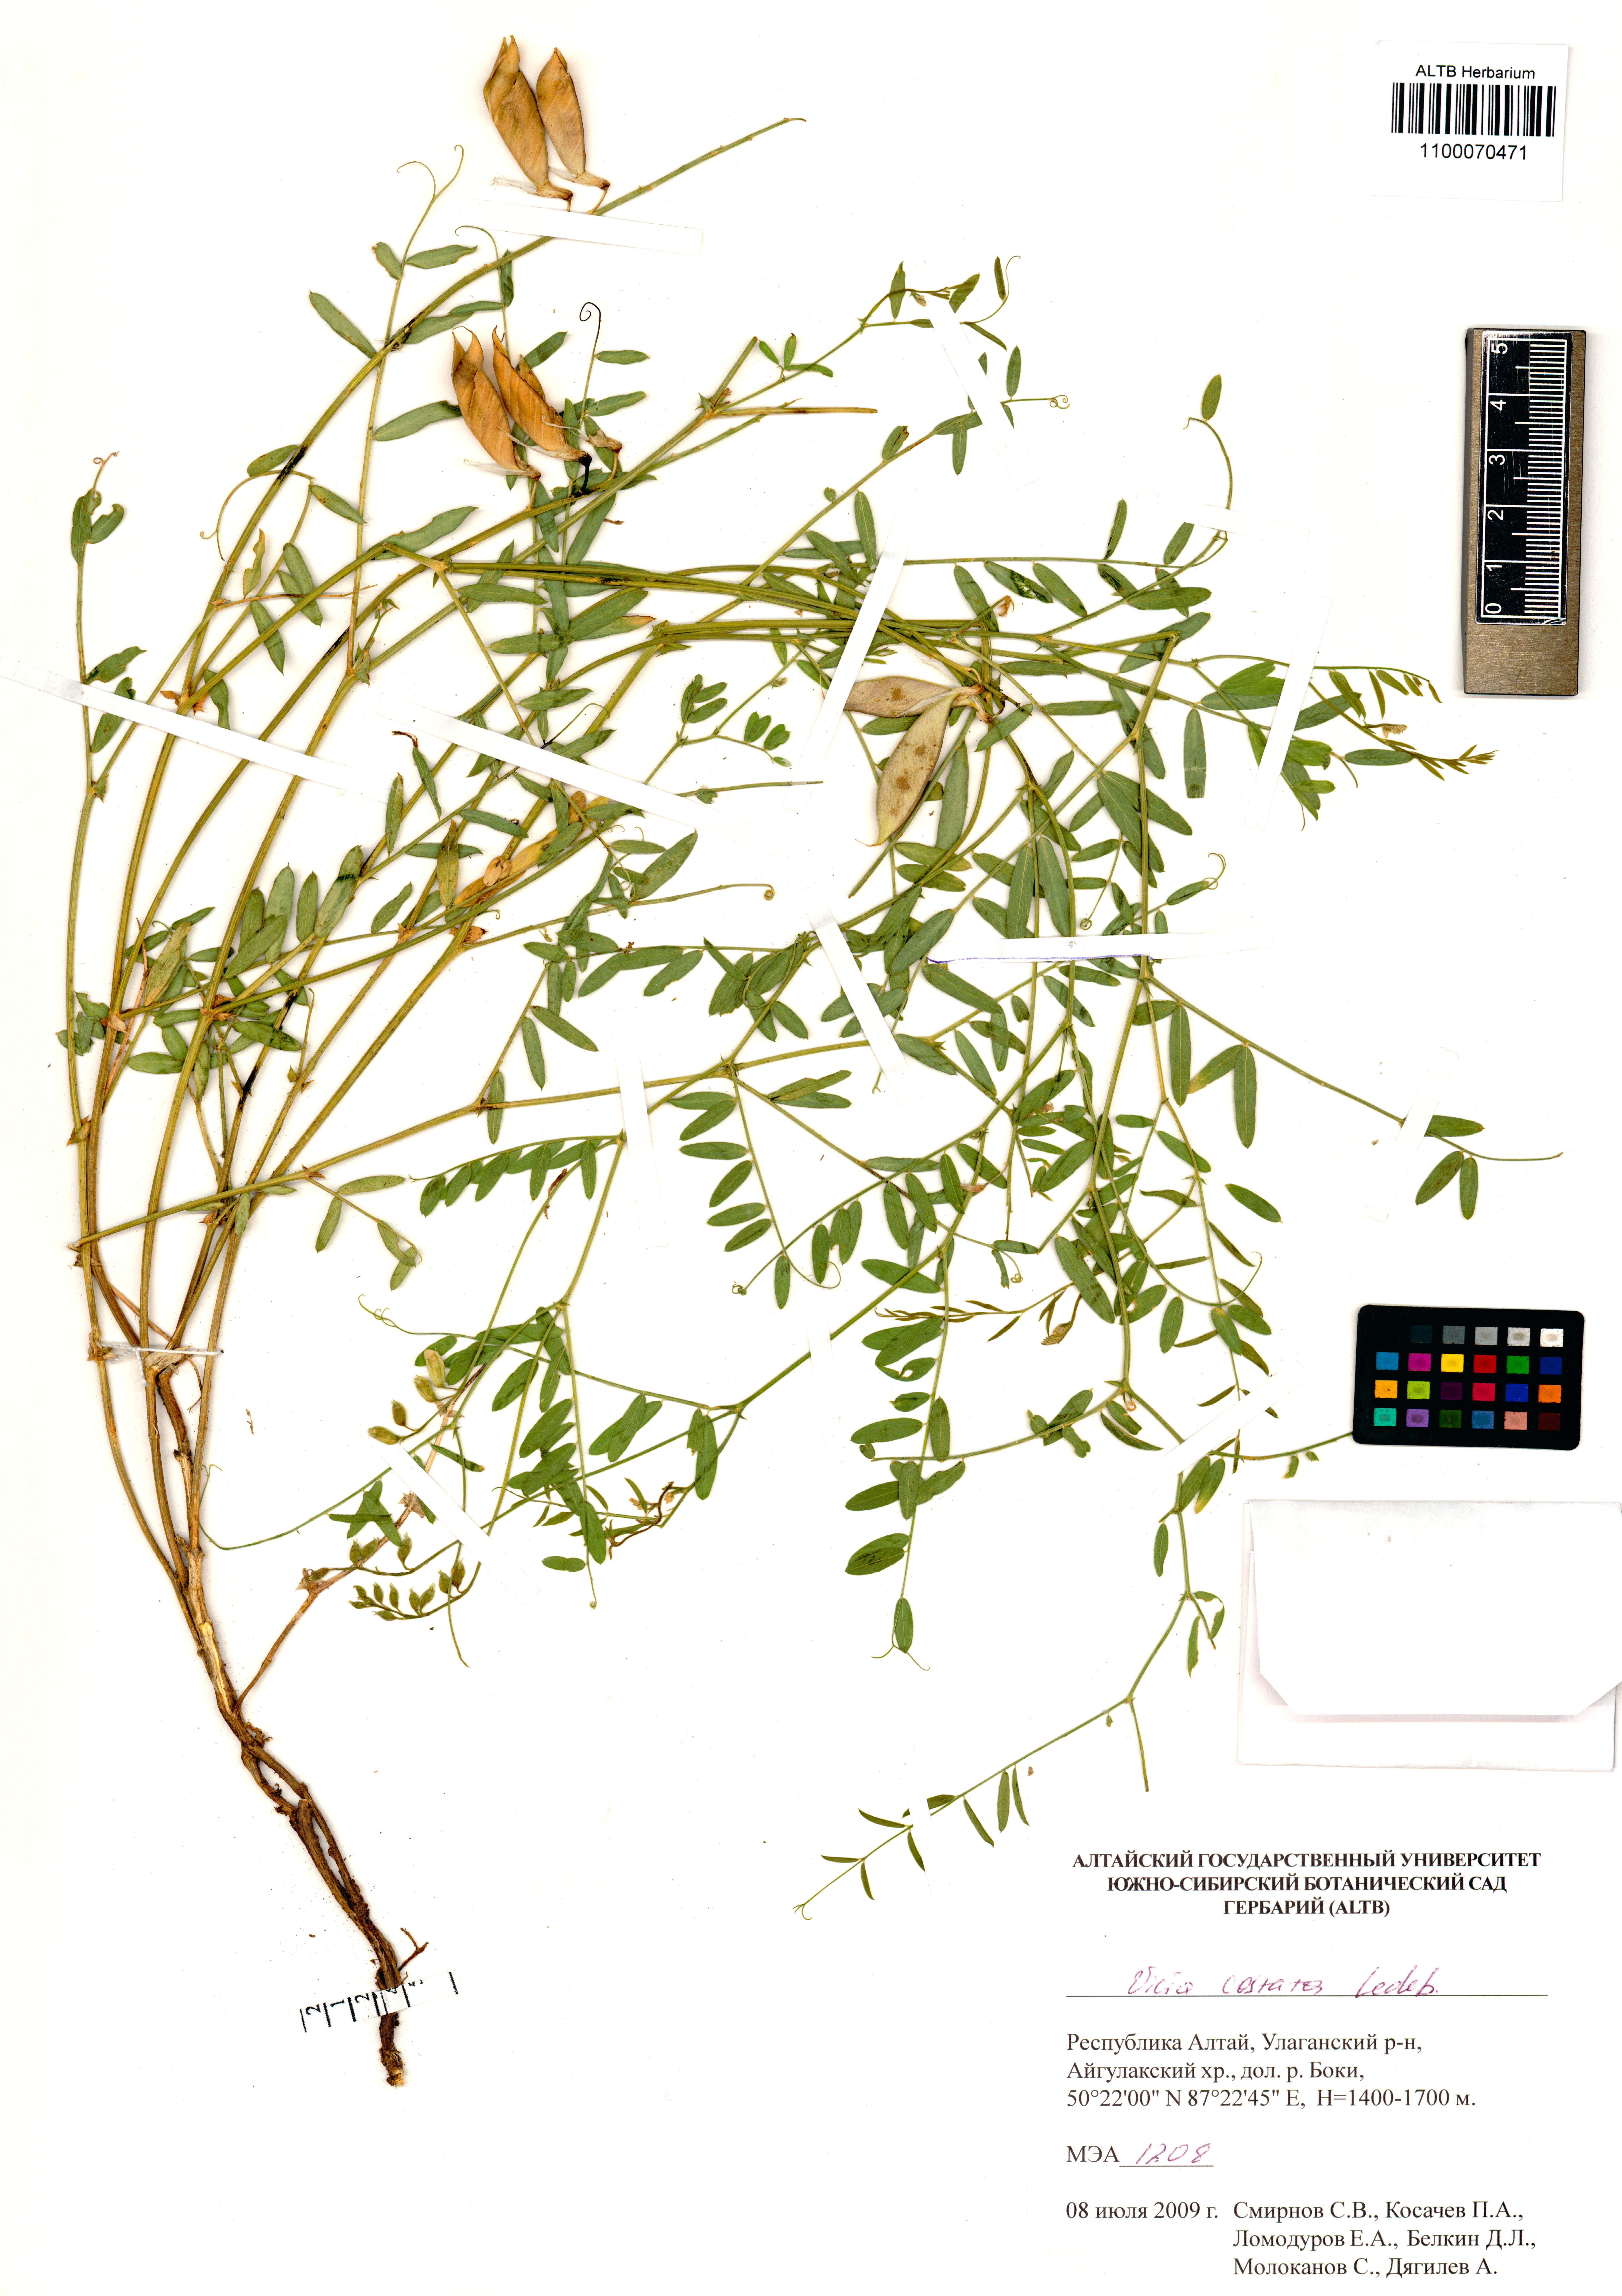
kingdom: Plantae
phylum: Tracheophyta
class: Magnoliopsida
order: Fabales
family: Fabaceae
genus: Vicia
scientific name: Vicia costata
